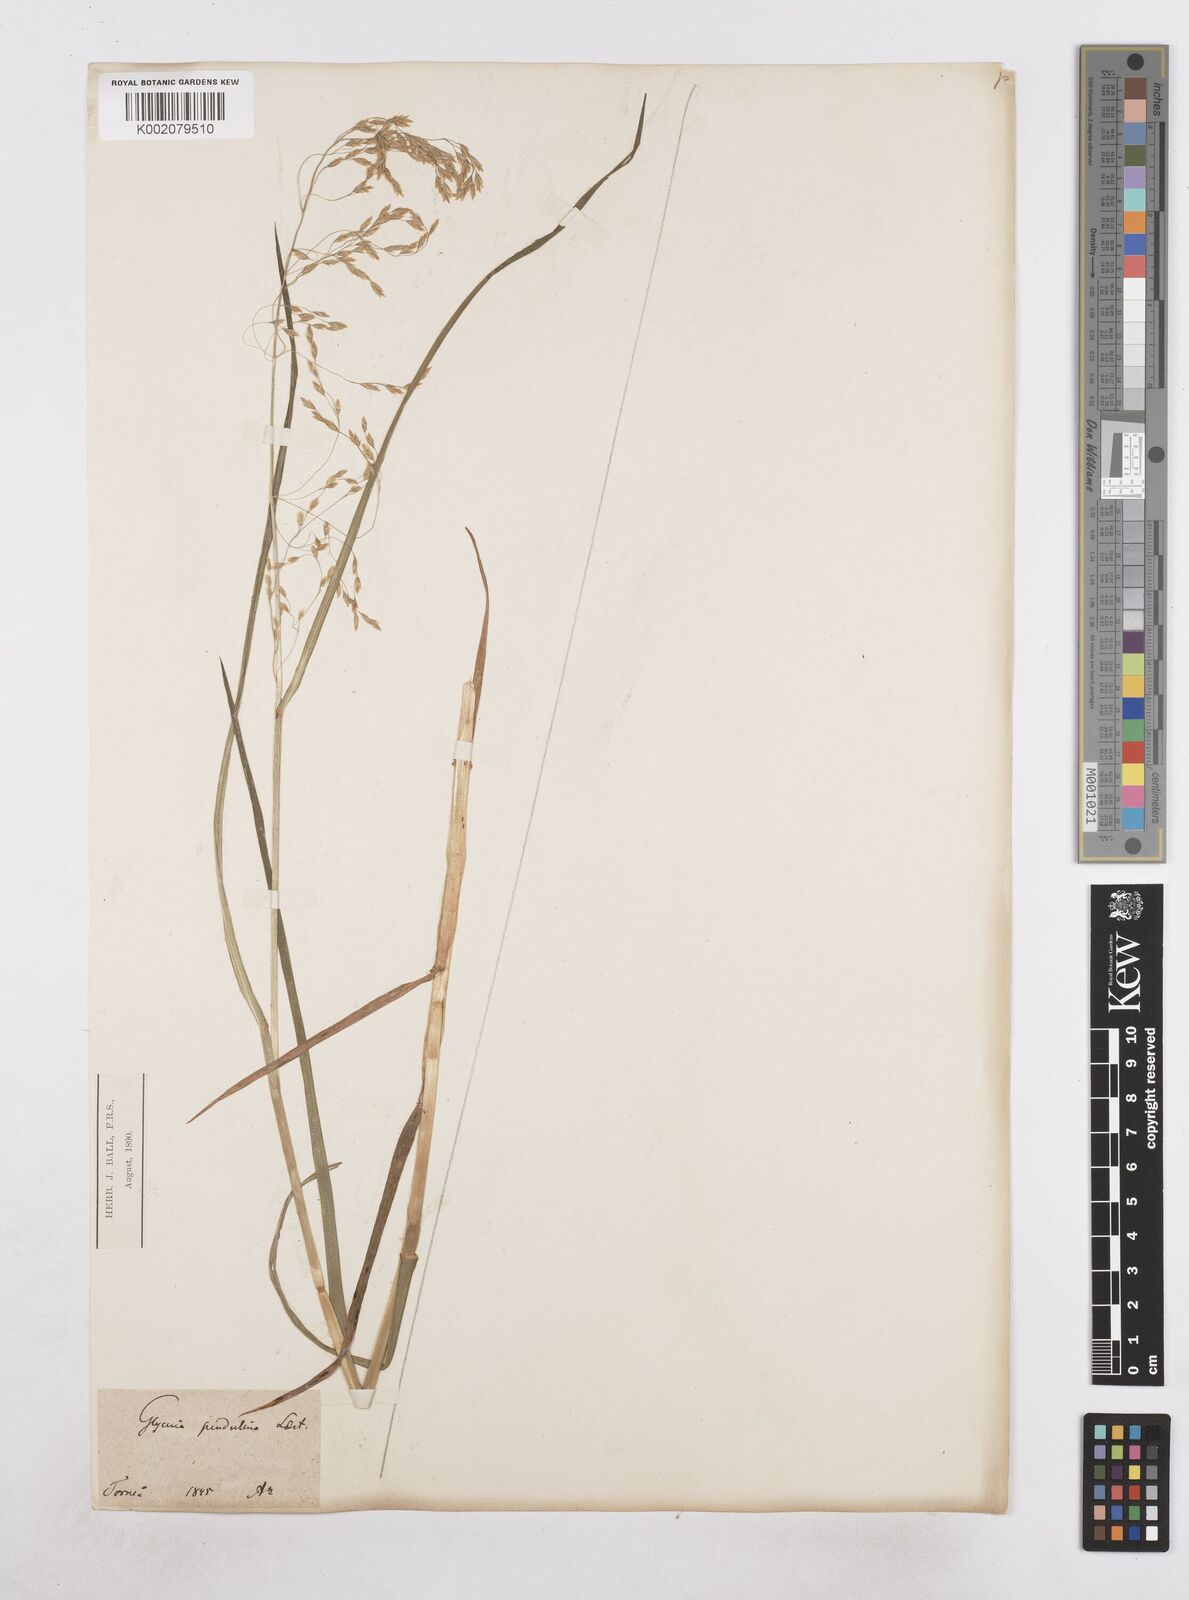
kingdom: Plantae
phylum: Tracheophyta
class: Liliopsida
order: Poales
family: Poaceae
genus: Dupontia
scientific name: Dupontia fulva
